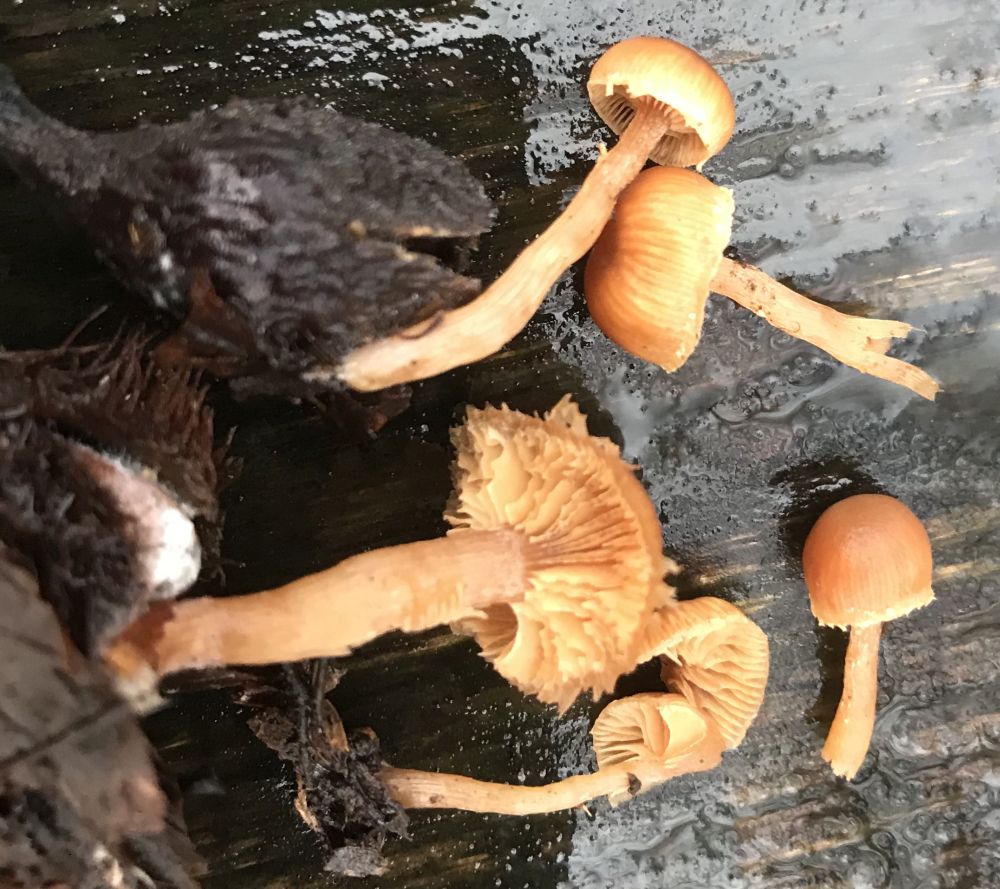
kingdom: Fungi
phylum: Basidiomycota
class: Agaricomycetes
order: Agaricales
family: Tubariaceae
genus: Tubaria
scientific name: Tubaria furfuracea
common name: kliddet fnughat
